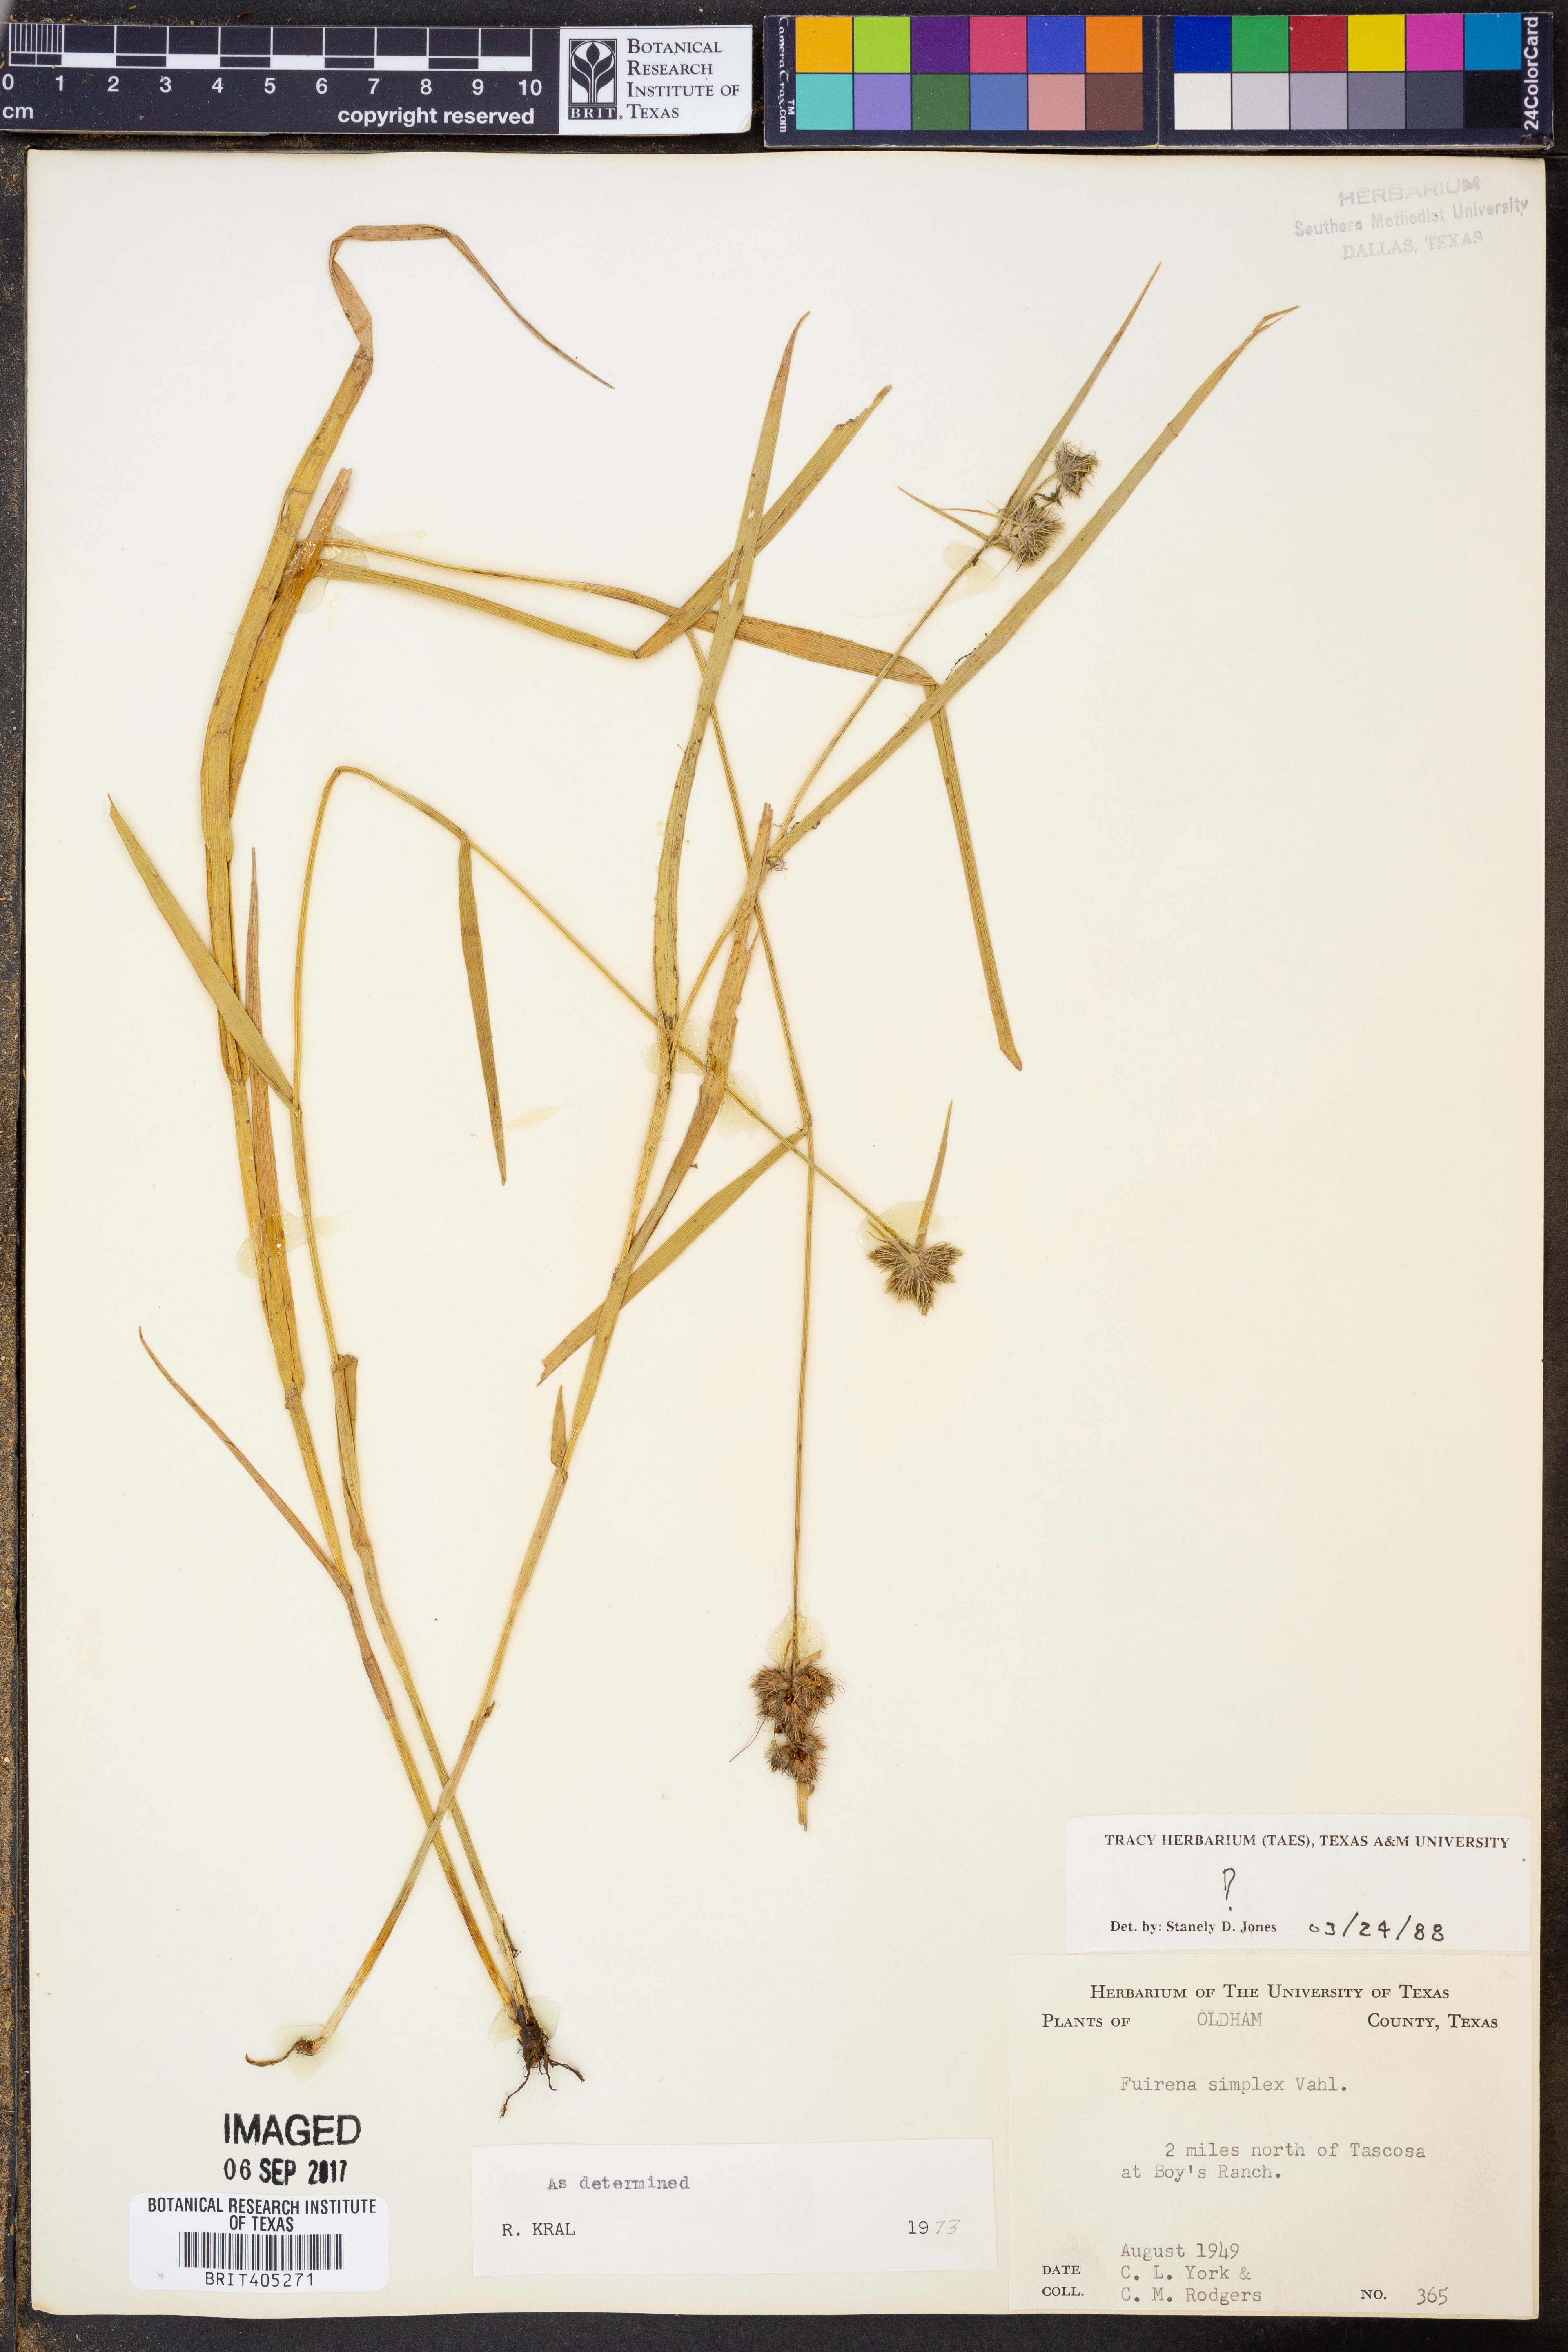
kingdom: Plantae
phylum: Tracheophyta
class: Liliopsida
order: Poales
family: Cyperaceae
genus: Fuirena
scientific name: Fuirena simplex
